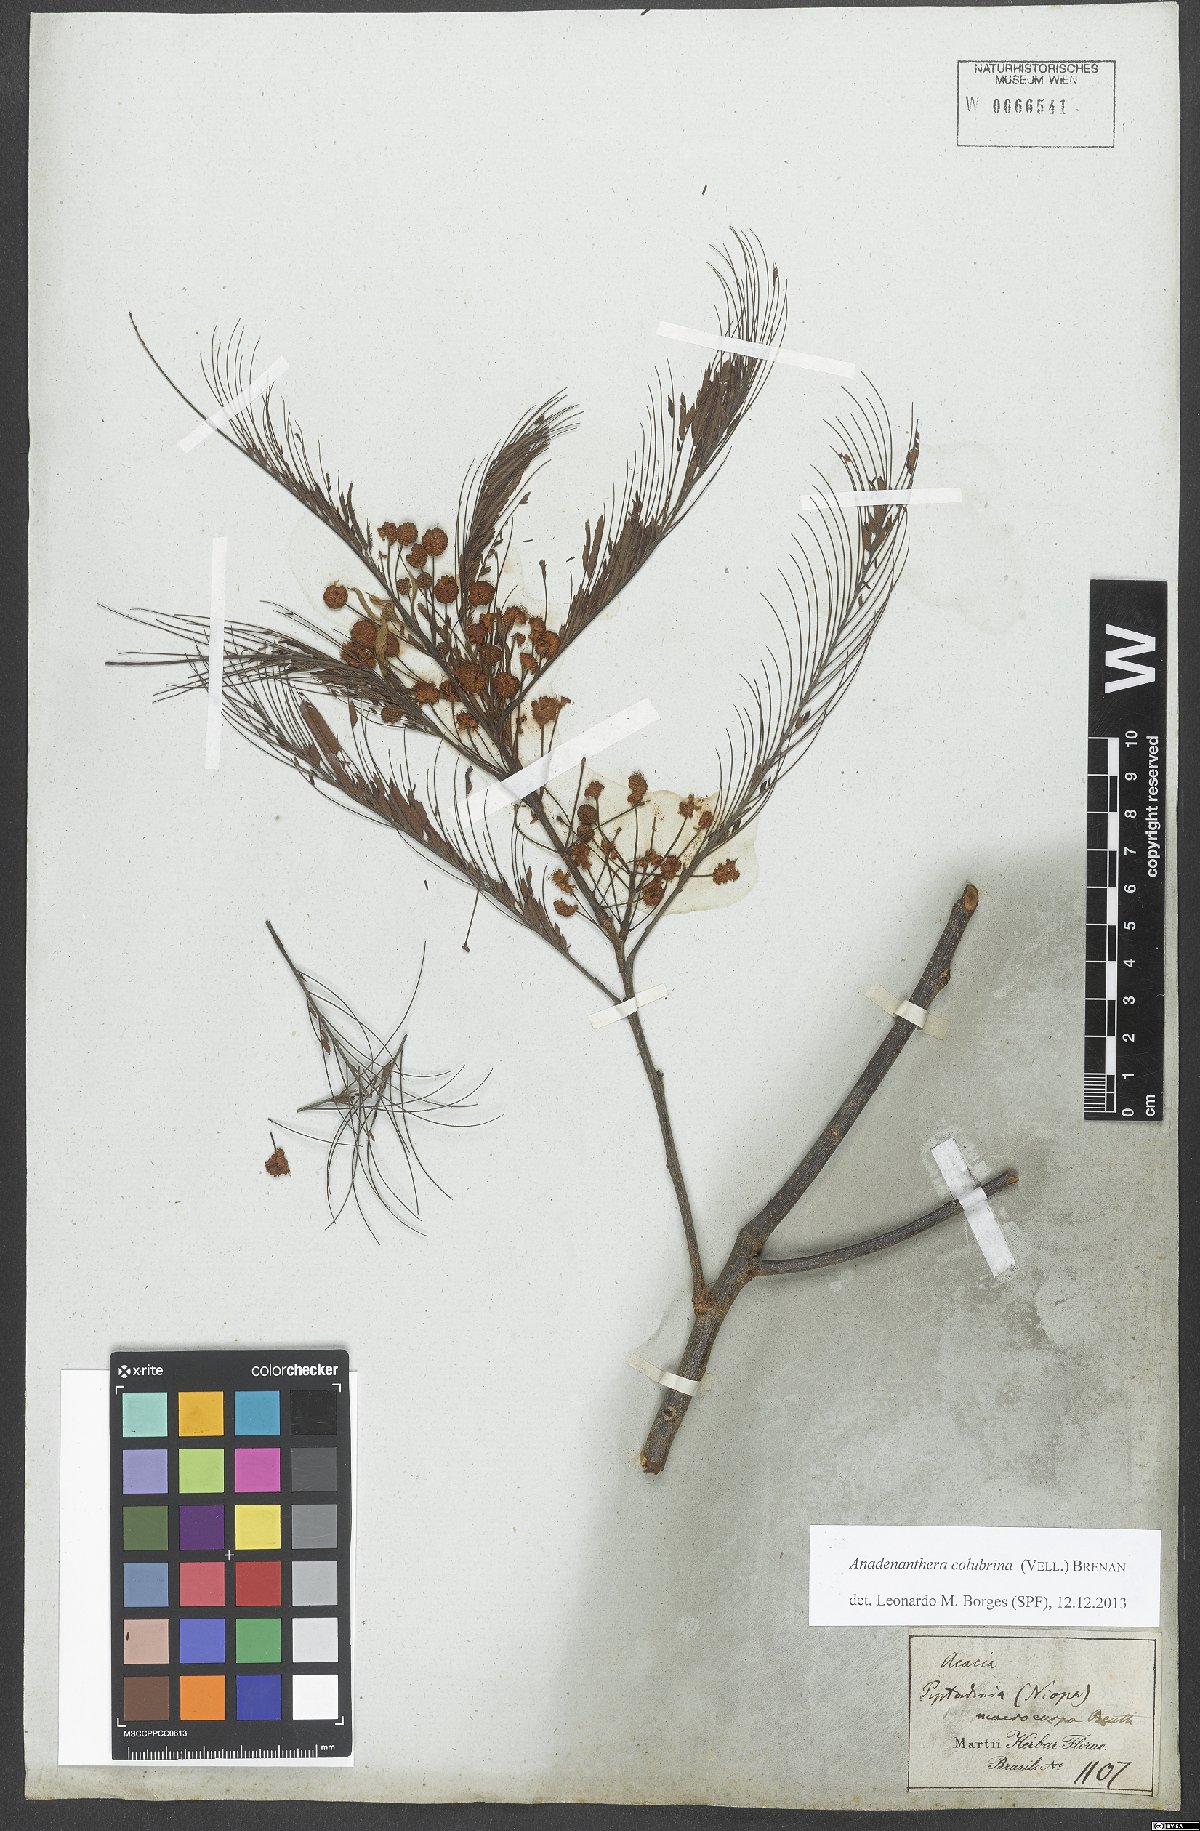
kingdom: Plantae
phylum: Tracheophyta
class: Magnoliopsida
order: Fabales
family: Fabaceae
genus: Anadenanthera
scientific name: Anadenanthera colubrina
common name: Curupay
